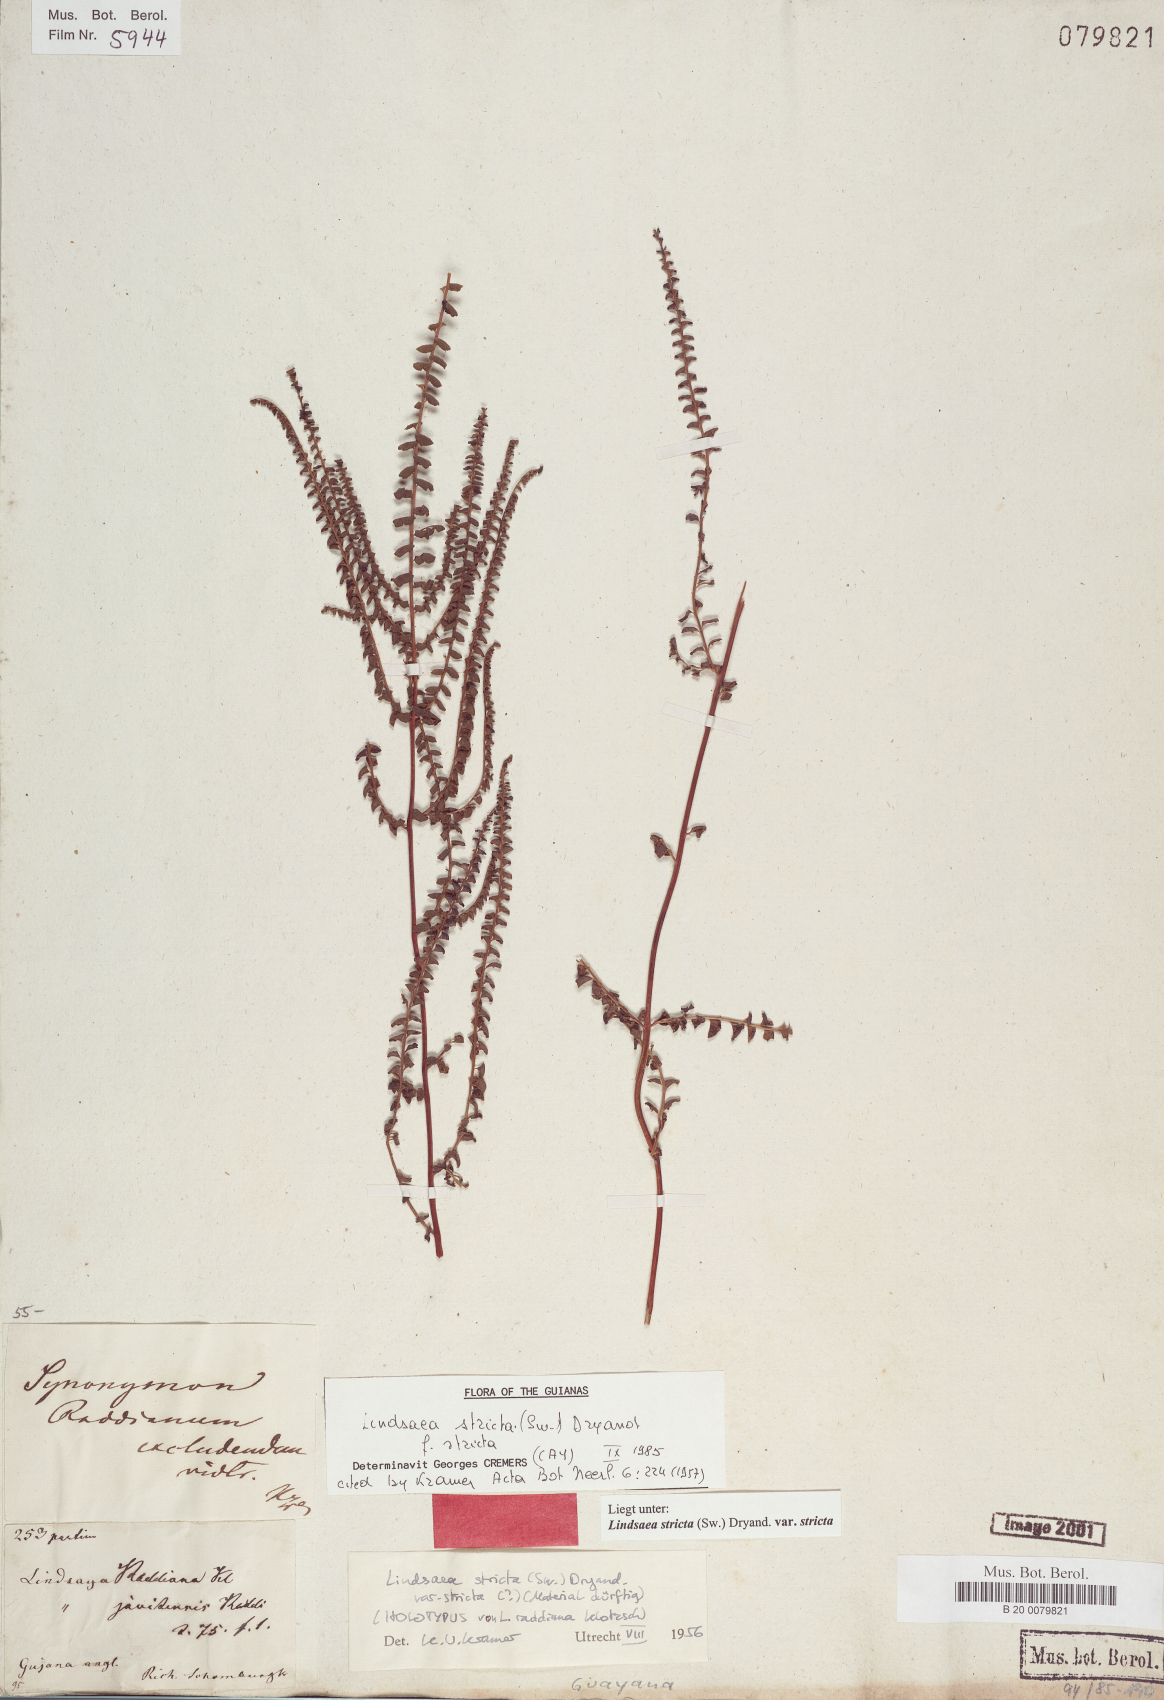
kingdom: Plantae
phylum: Tracheophyta
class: Polypodiopsida
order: Polypodiales
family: Lindsaeaceae
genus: Lindsaea
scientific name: Lindsaea stricta
